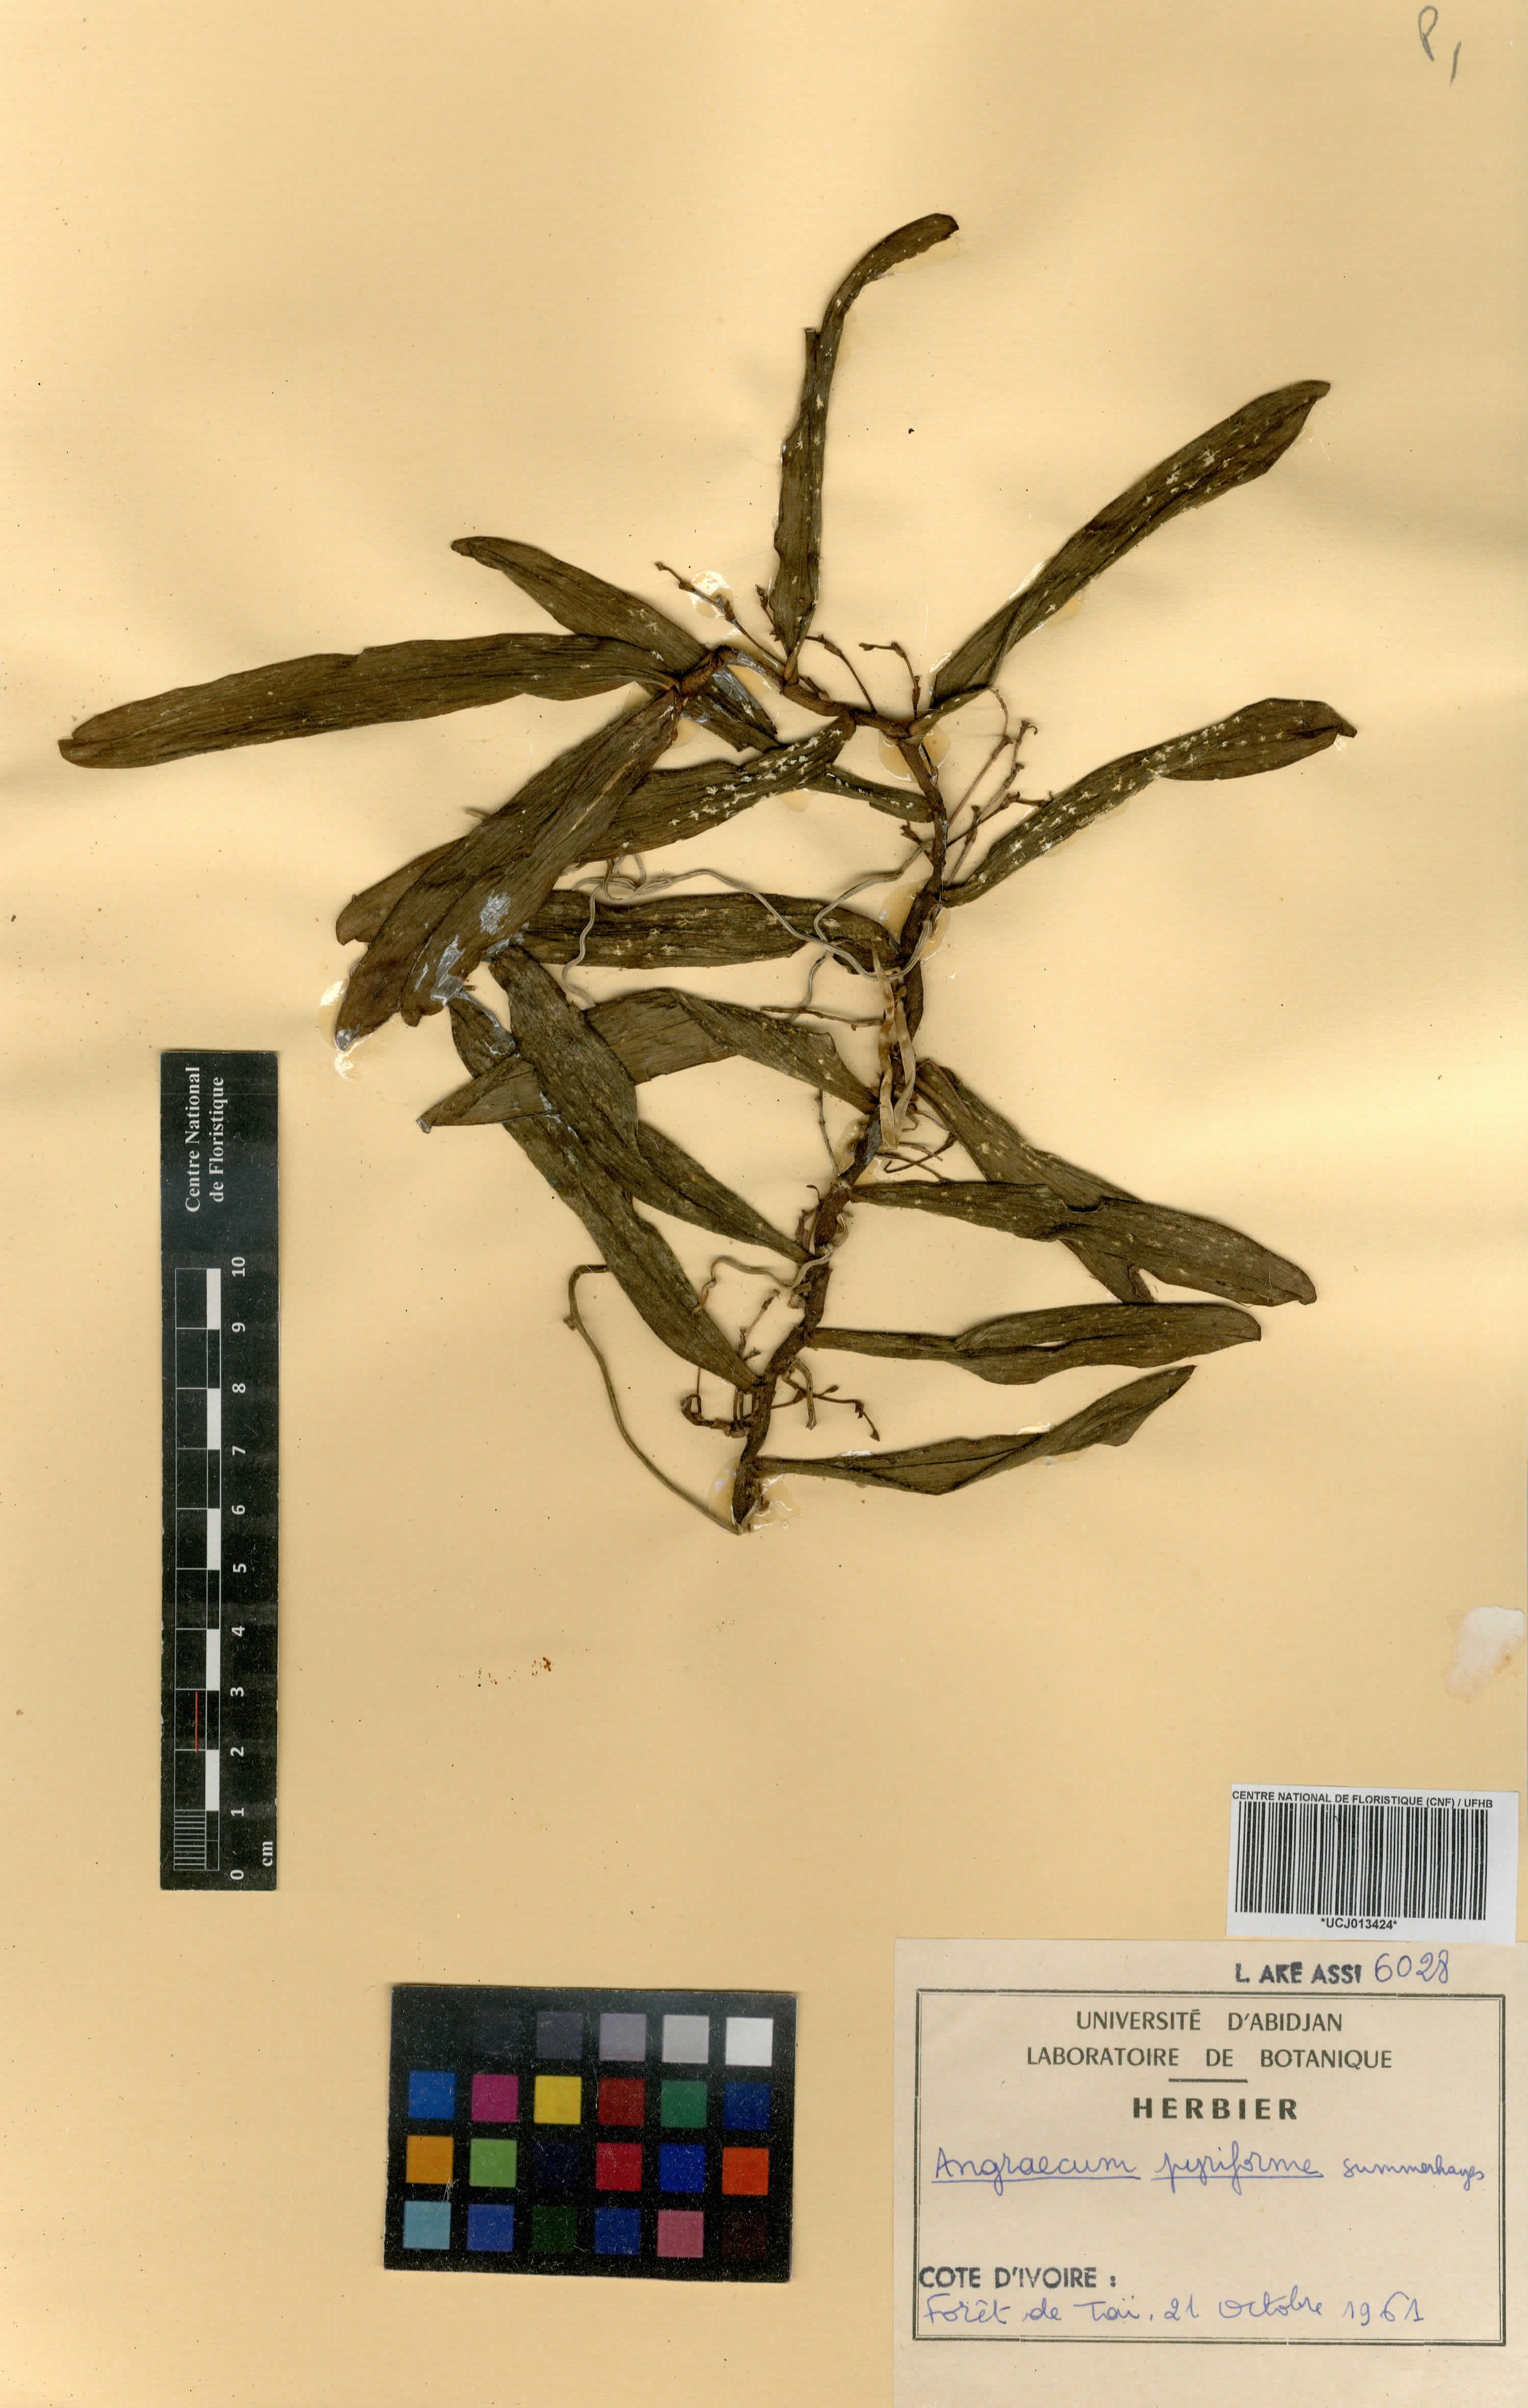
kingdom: Plantae
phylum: Tracheophyta
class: Liliopsida
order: Asparagales
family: Orchidaceae
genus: Angraecum
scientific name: Angraecum pyriforme
